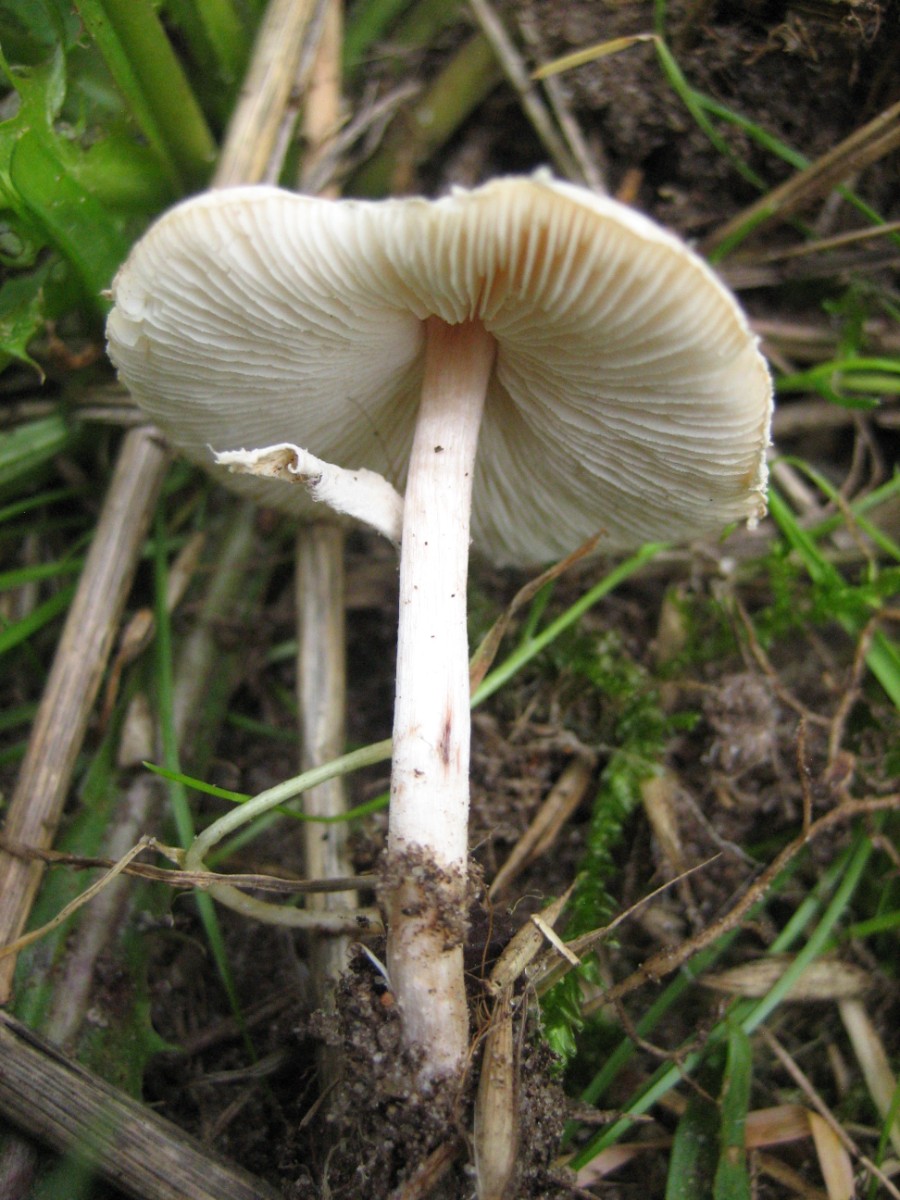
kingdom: Fungi
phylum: Basidiomycota
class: Agaricomycetes
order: Agaricales
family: Agaricaceae
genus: Lepiota
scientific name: Lepiota cristata
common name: stinkende parasolhat
